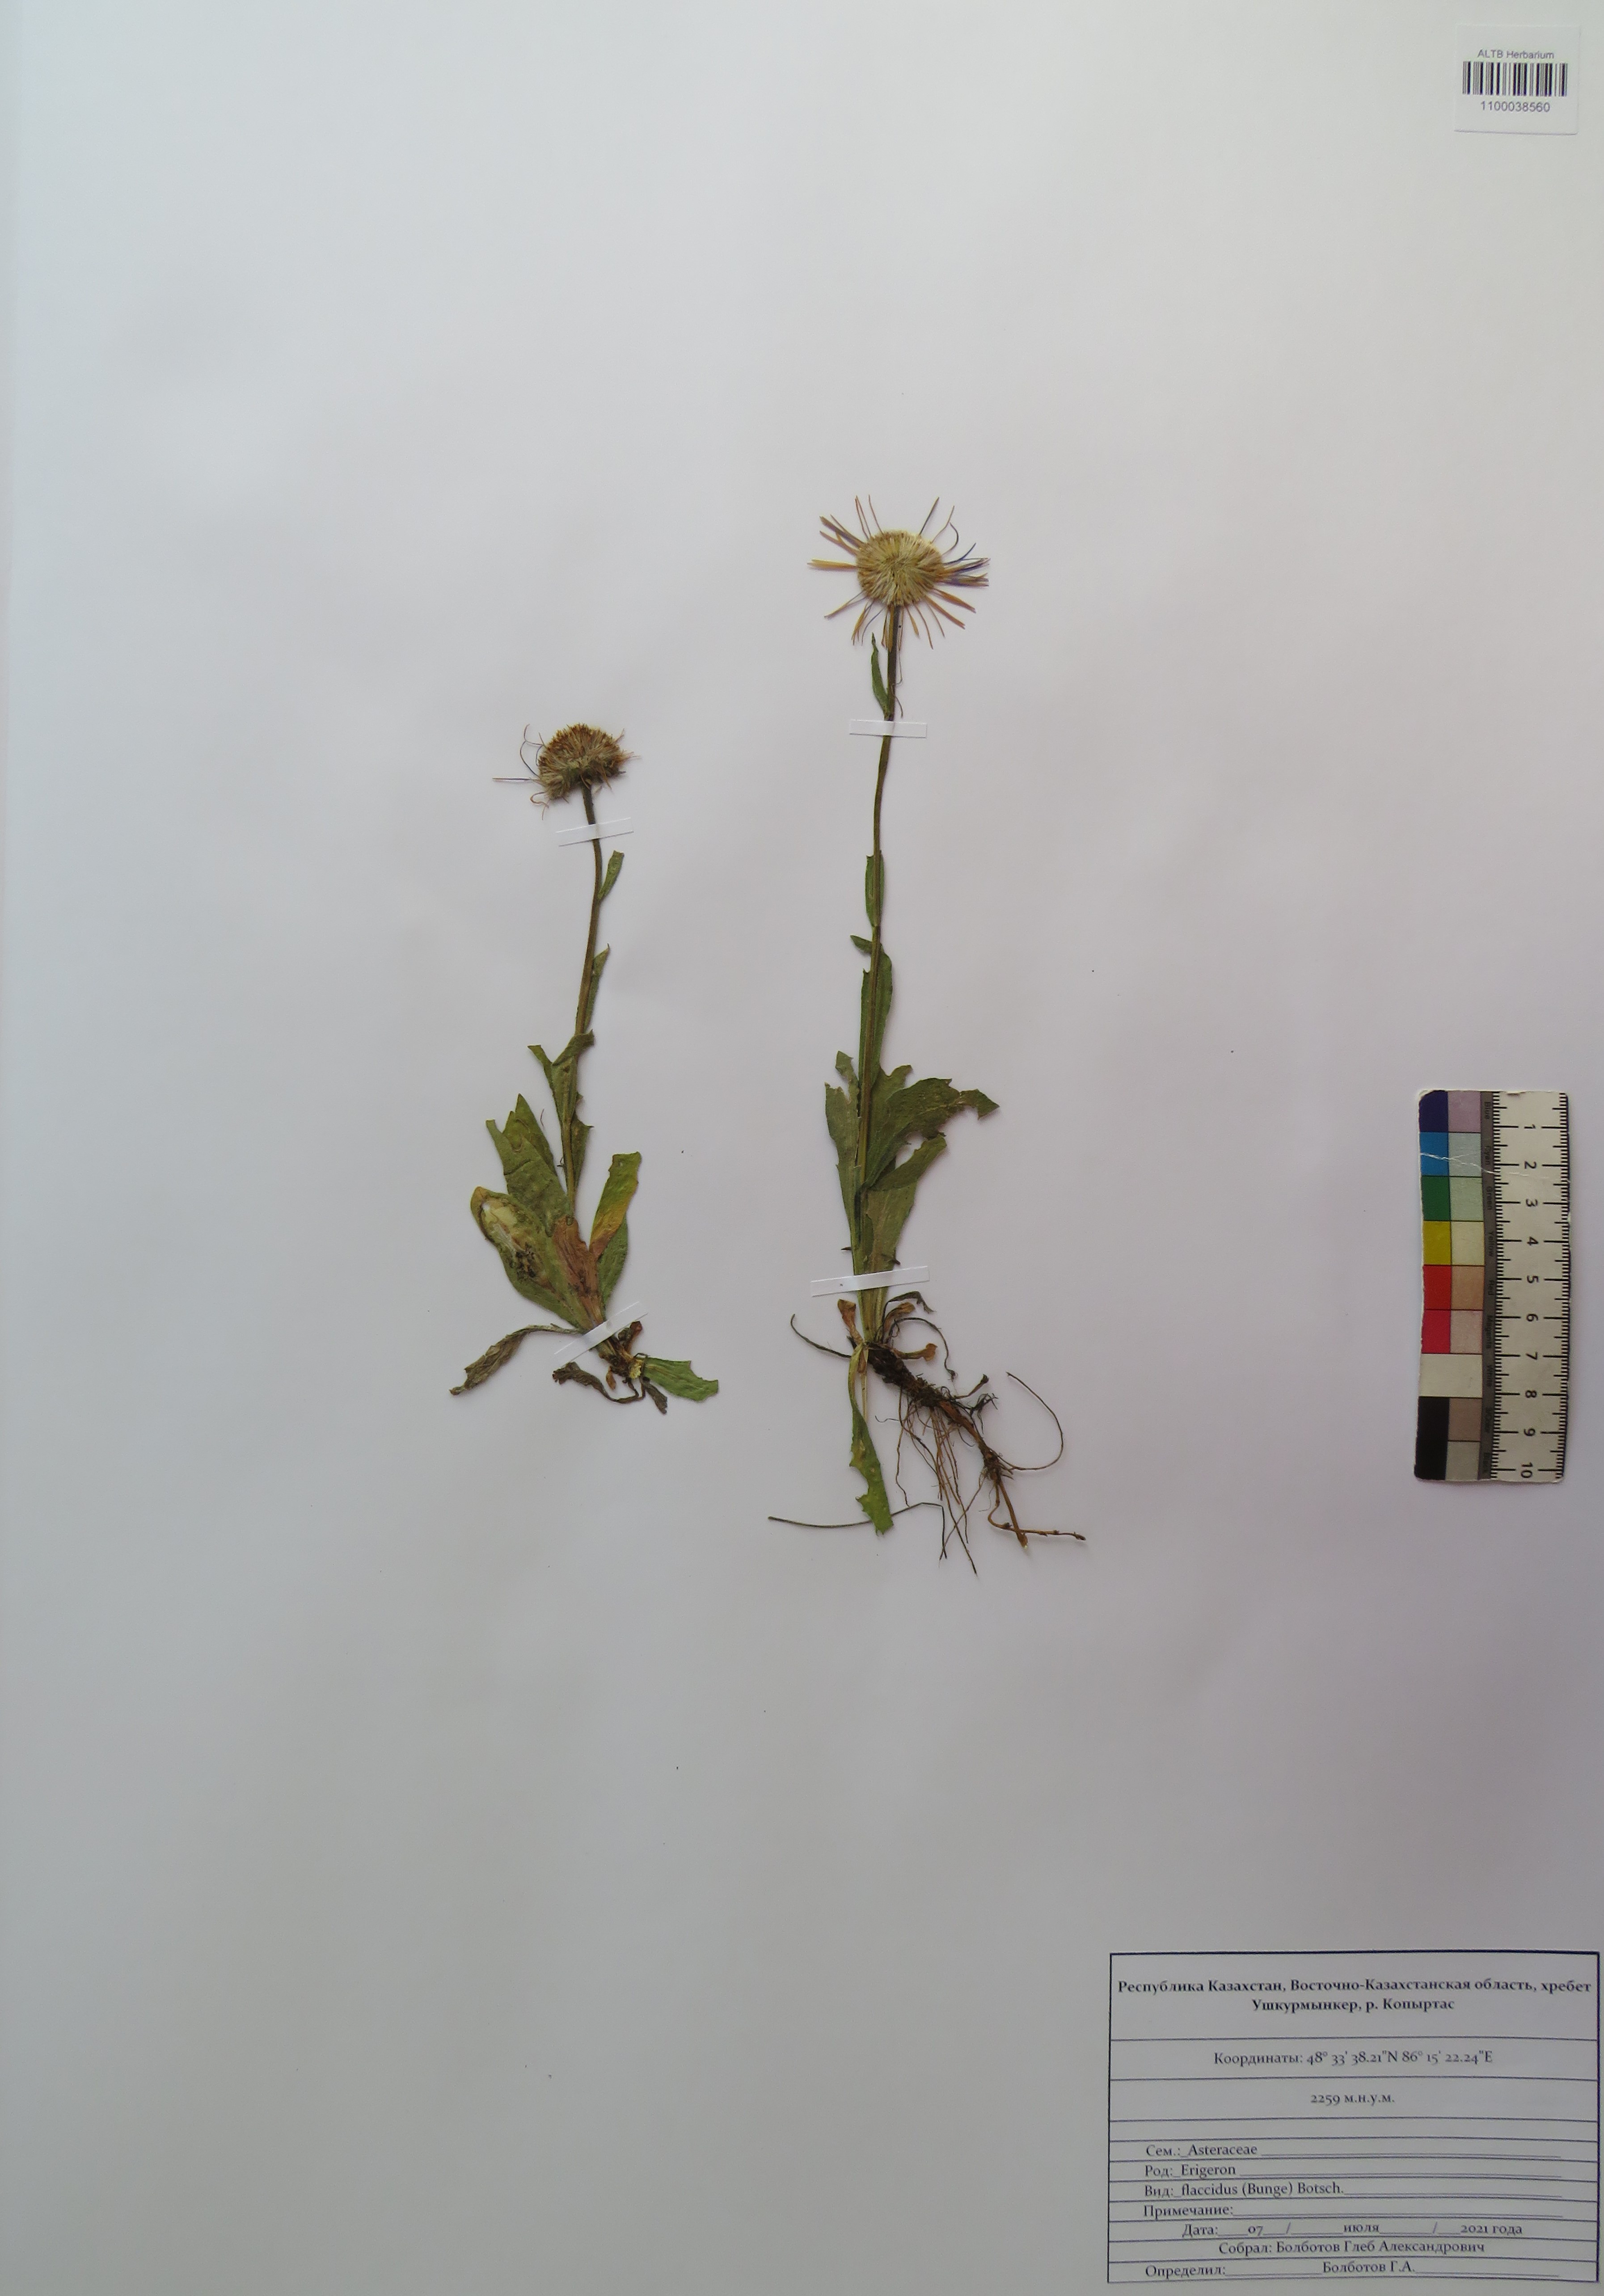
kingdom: Plantae
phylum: Tracheophyta
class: Magnoliopsida
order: Asterales
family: Asteraceae
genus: Tibetiodes
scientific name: Tibetiodes flaccida
